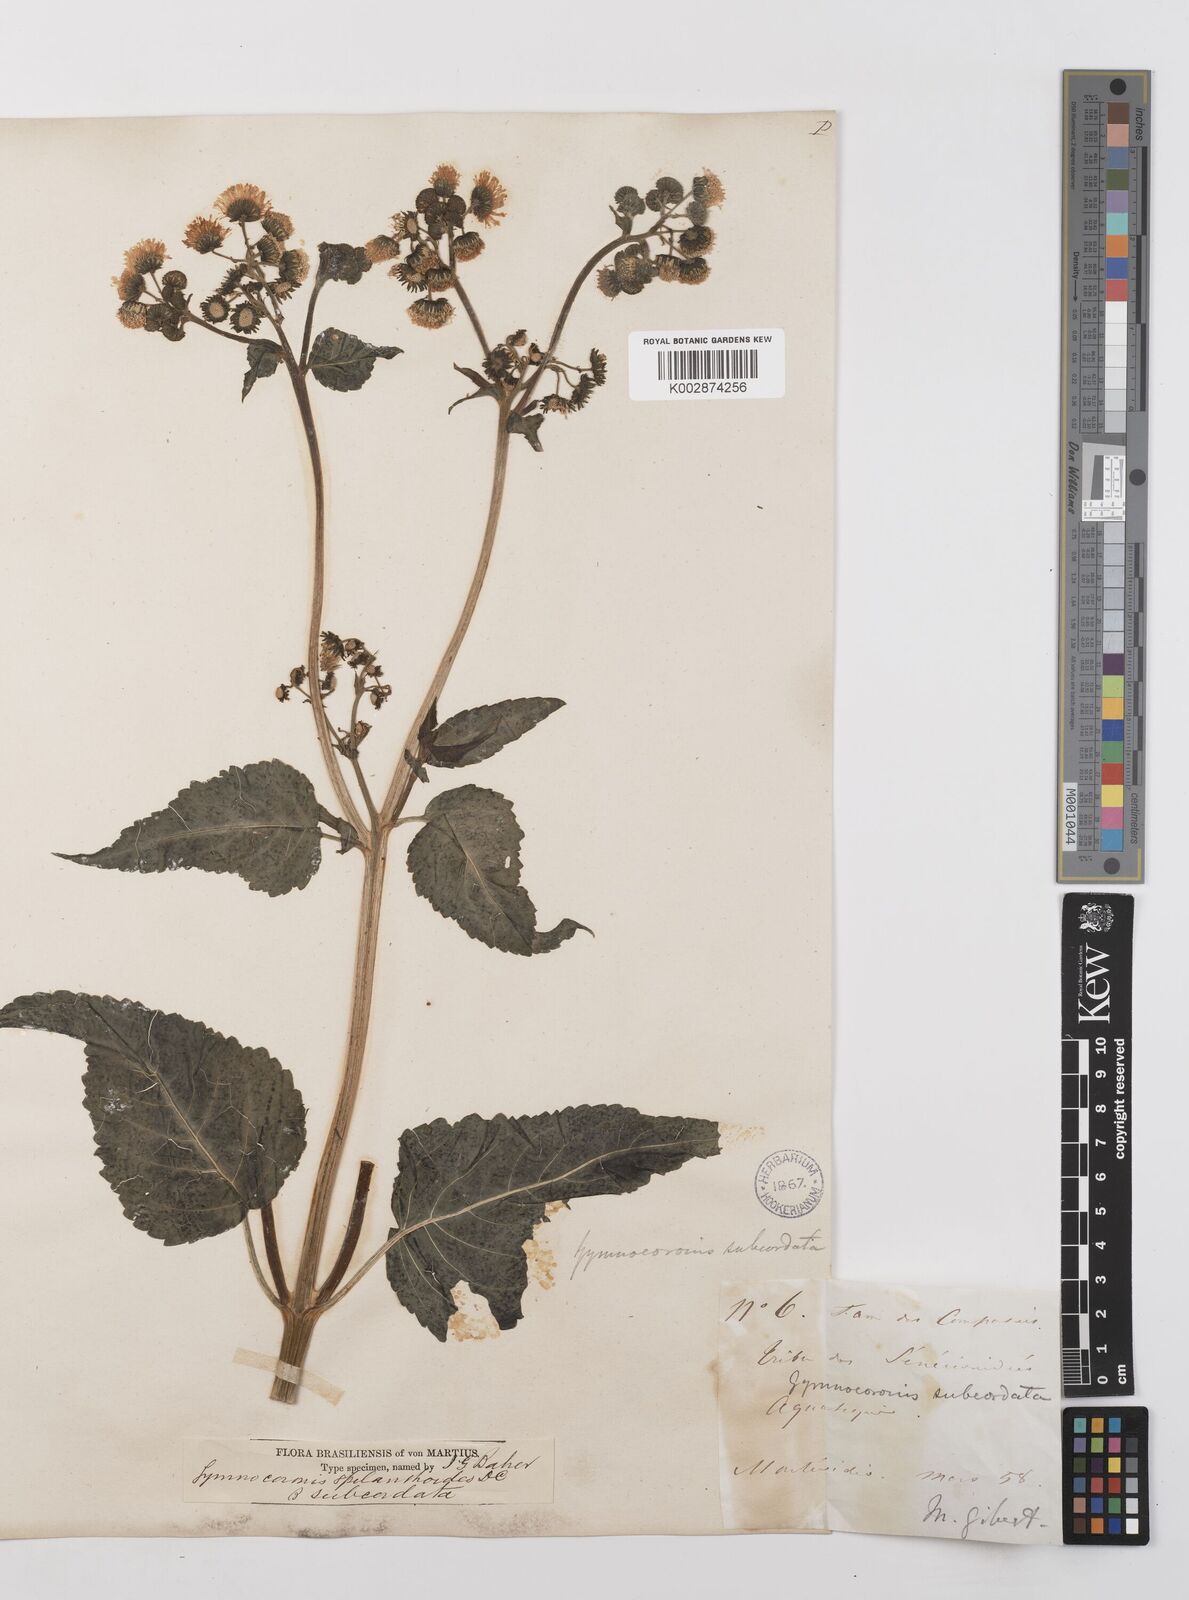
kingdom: Plantae
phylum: Tracheophyta
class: Magnoliopsida
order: Asterales
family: Asteraceae
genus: Gymnocoronis
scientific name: Gymnocoronis spilanthoides
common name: Senegal teaplant
